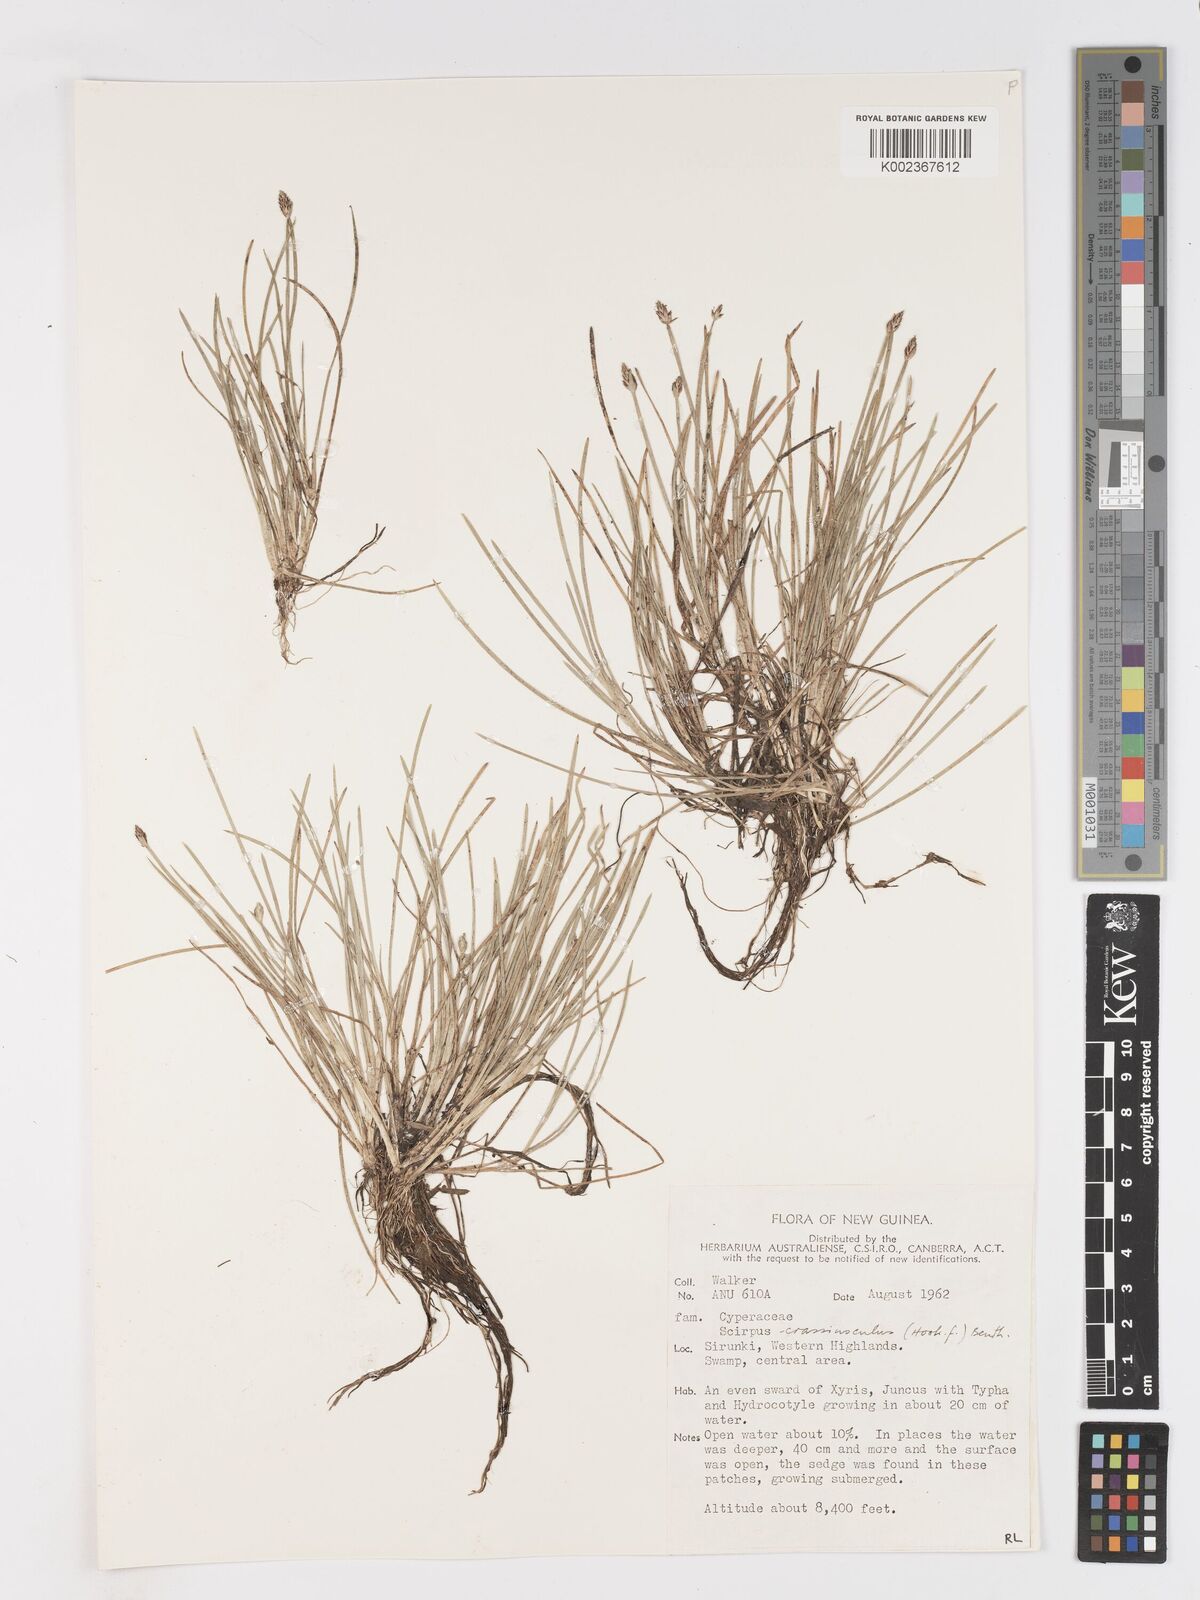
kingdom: Plantae
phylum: Tracheophyta
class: Liliopsida
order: Poales
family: Cyperaceae
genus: Isolepis
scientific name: Isolepis crassiuscula
